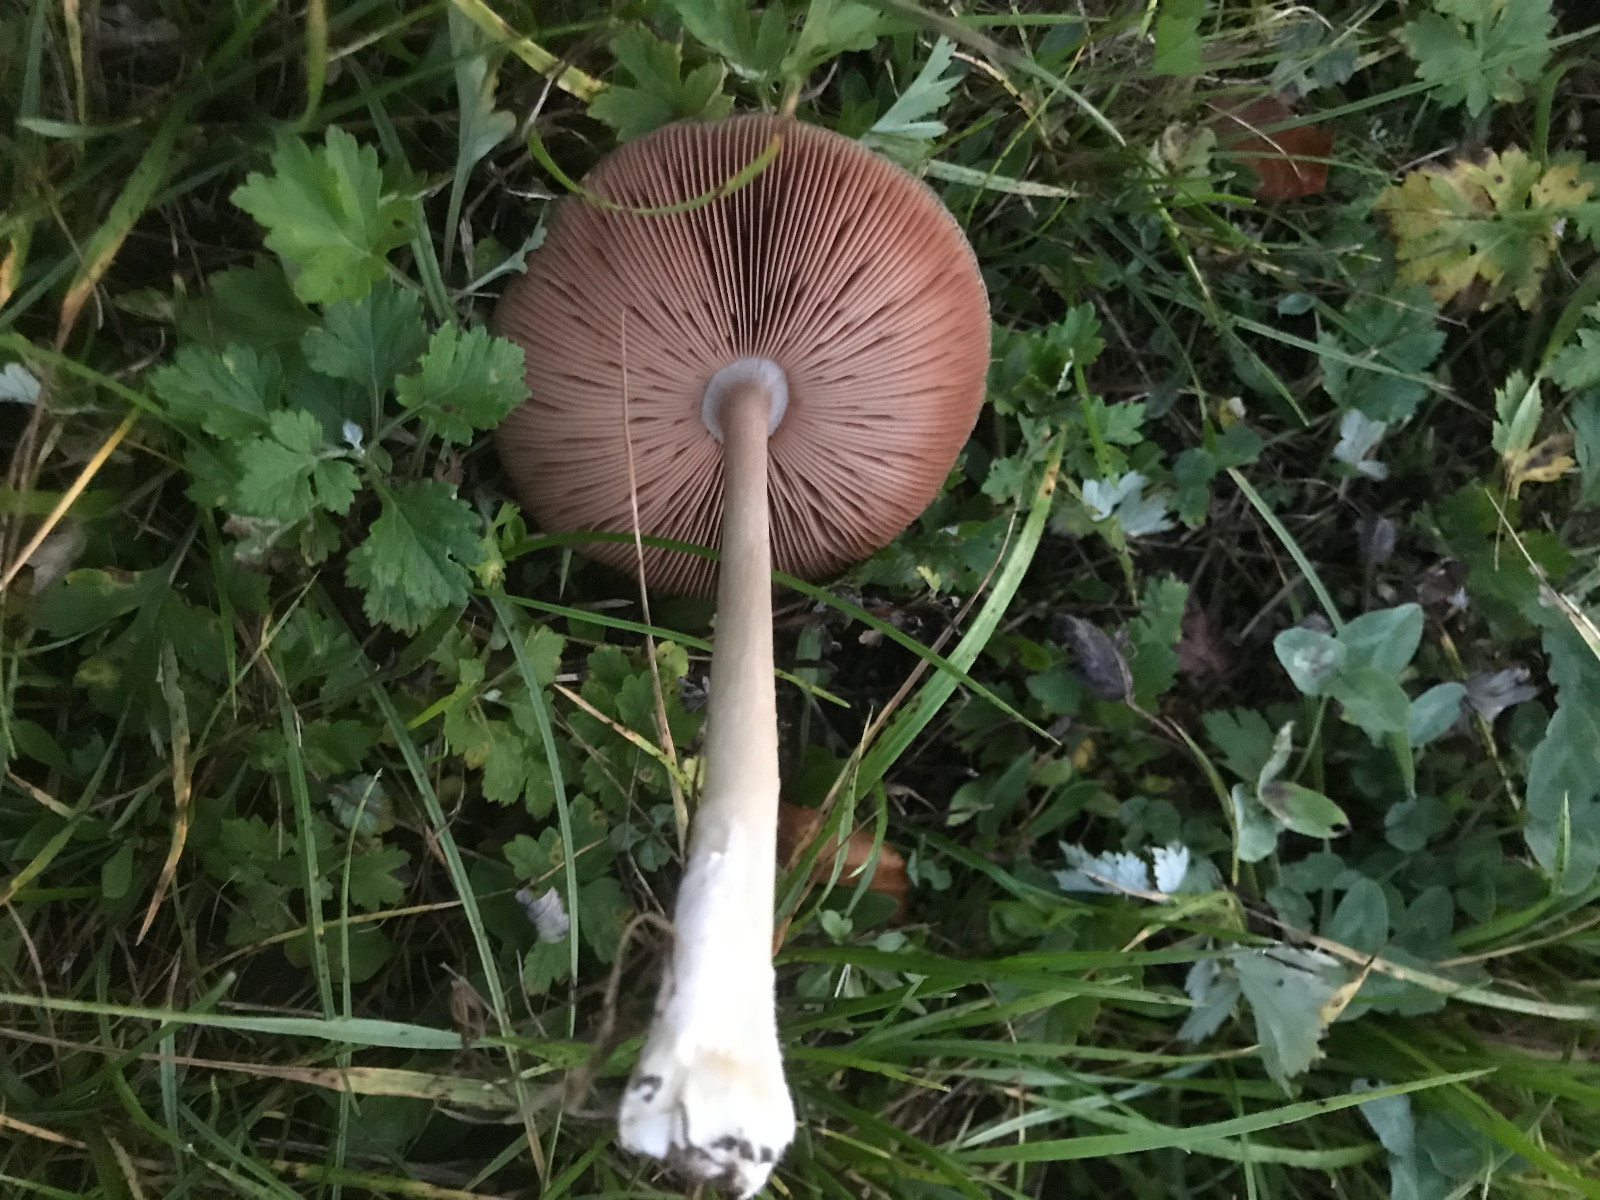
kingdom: Fungi
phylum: Basidiomycota
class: Agaricomycetes
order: Agaricales
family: Pluteaceae
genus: Volvopluteus
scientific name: Volvopluteus gloiocephalus
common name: høj posesvamp
